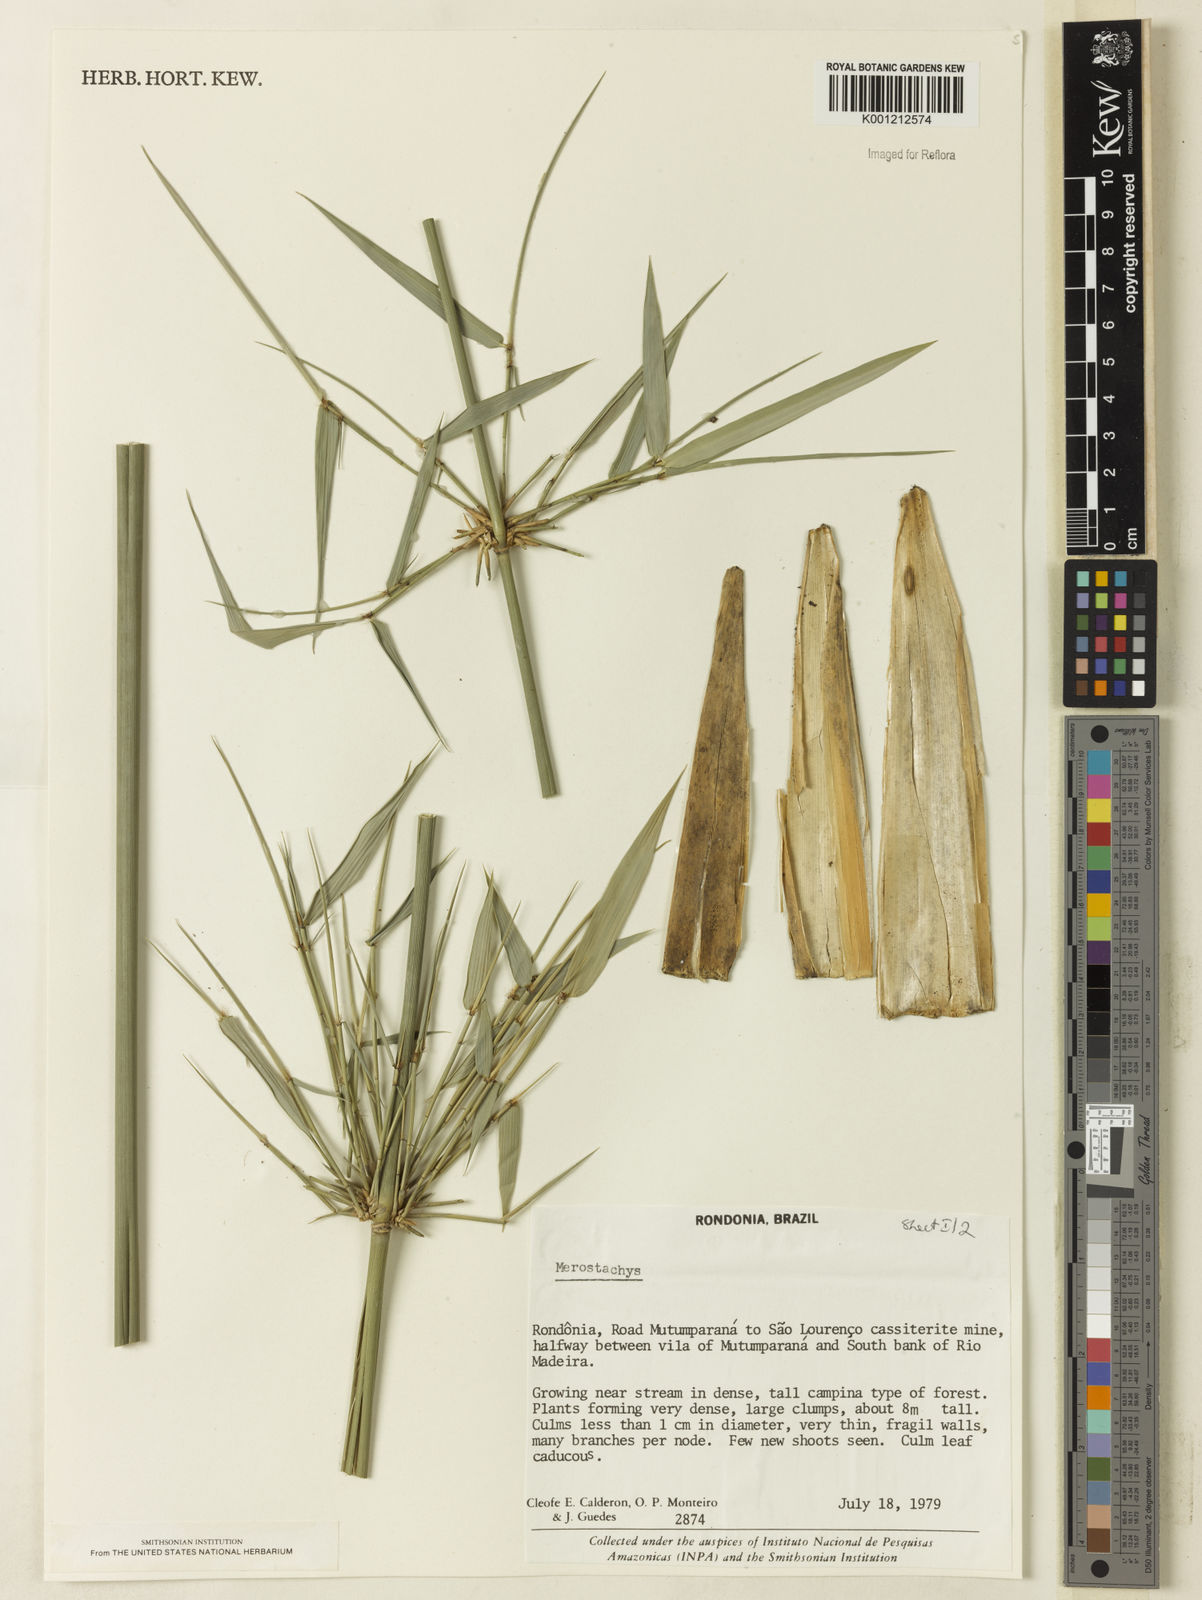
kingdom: Plantae
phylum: Tracheophyta
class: Liliopsida
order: Poales
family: Poaceae
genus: Merostachys
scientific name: Merostachys
